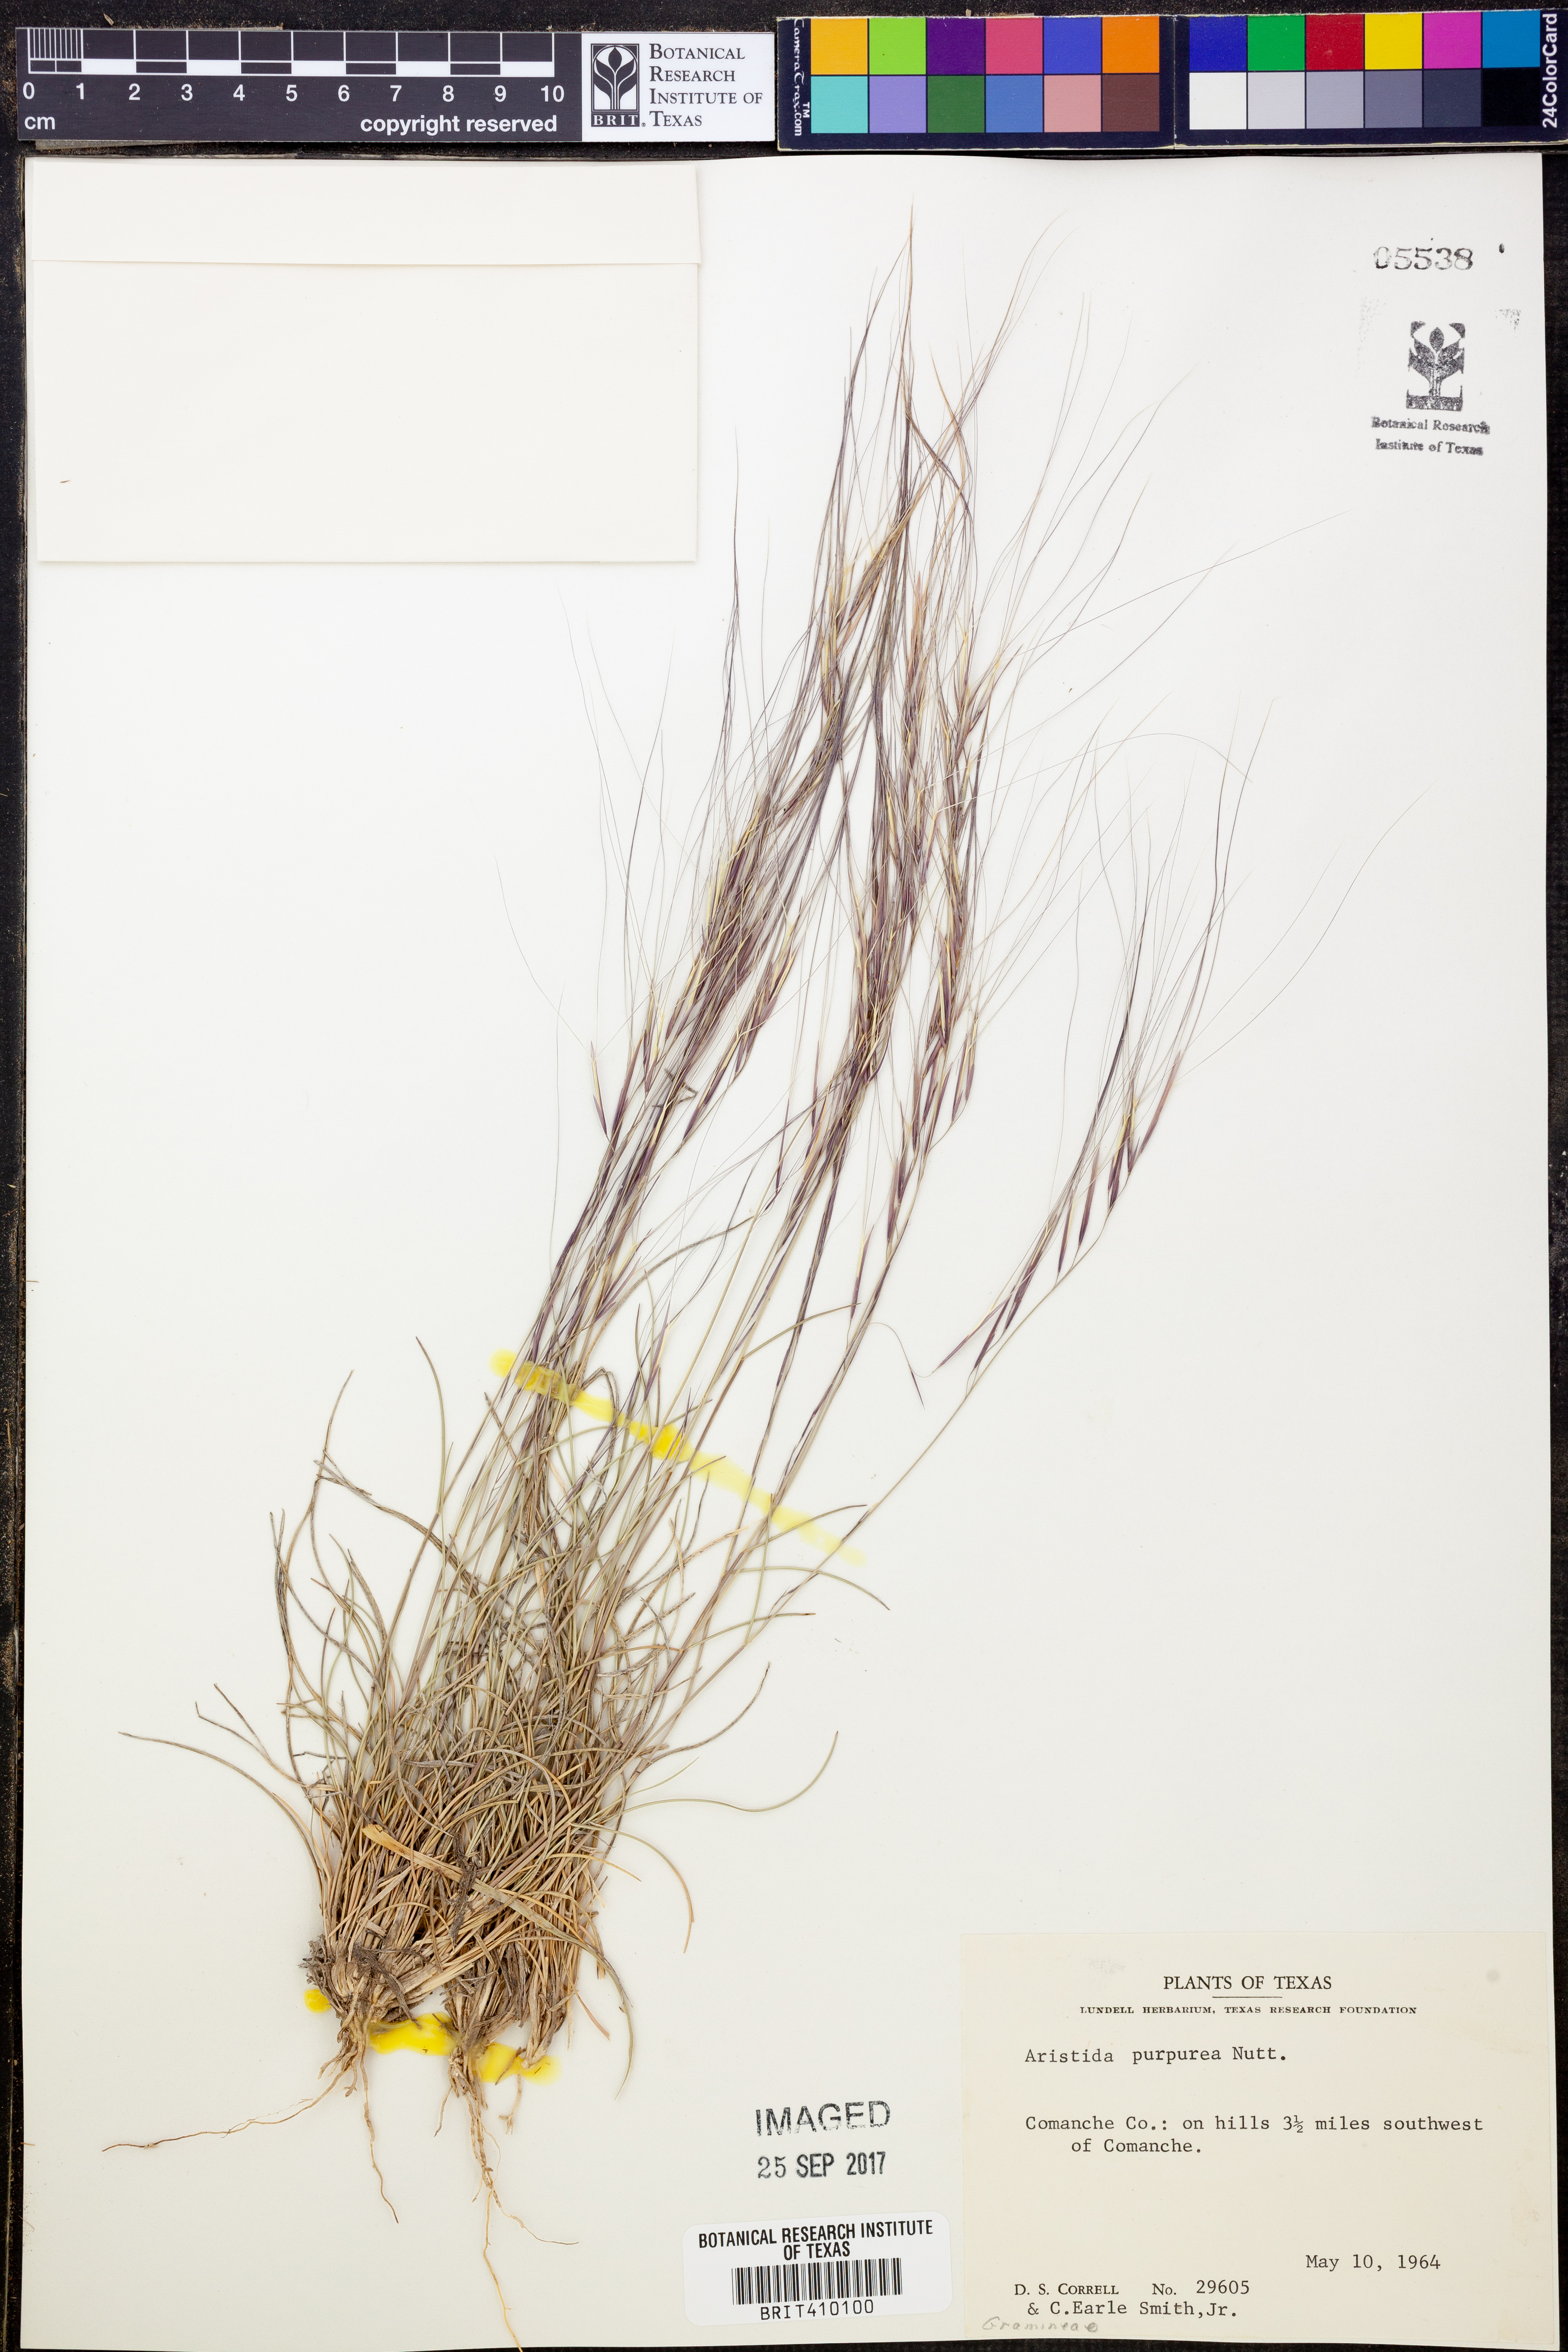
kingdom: Plantae
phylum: Tracheophyta
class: Liliopsida
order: Poales
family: Poaceae
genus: Aristida
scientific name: Aristida purpurea
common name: Purple threeawn
